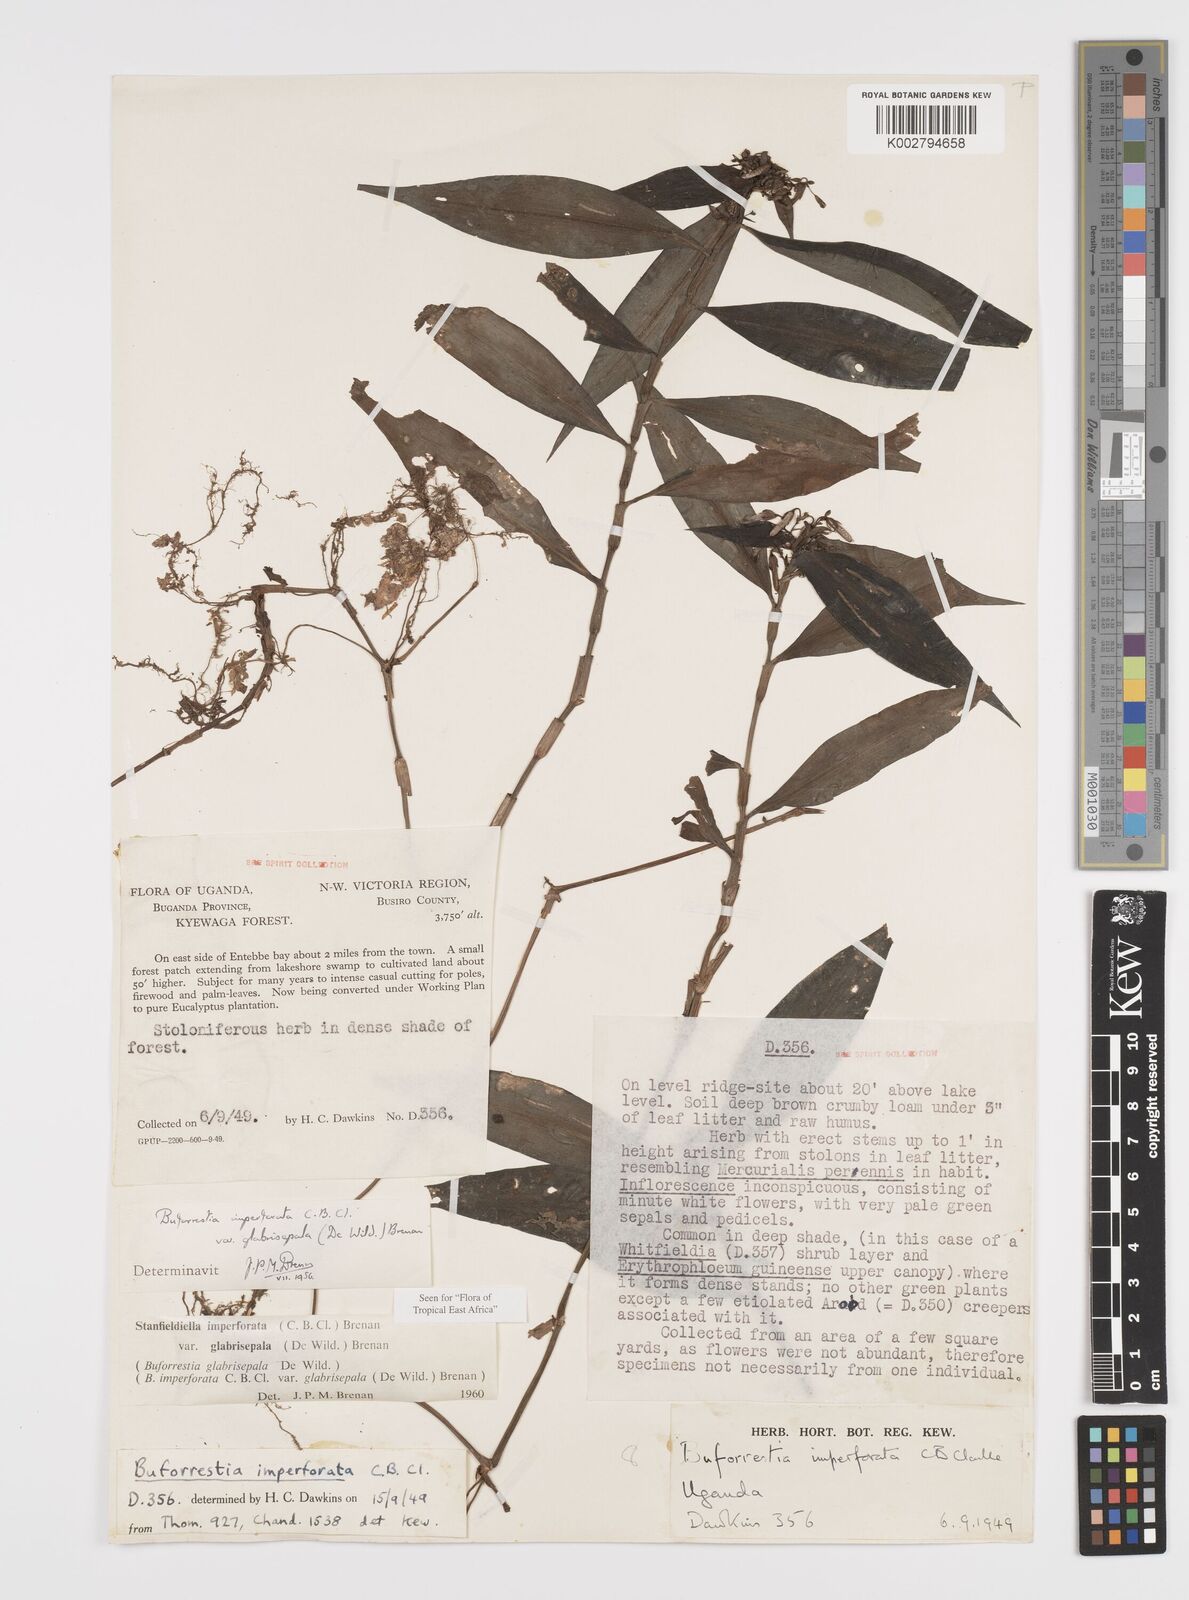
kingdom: Plantae
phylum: Tracheophyta
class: Liliopsida
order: Commelinales
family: Commelinaceae
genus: Stanfieldiella
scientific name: Stanfieldiella imperforata
